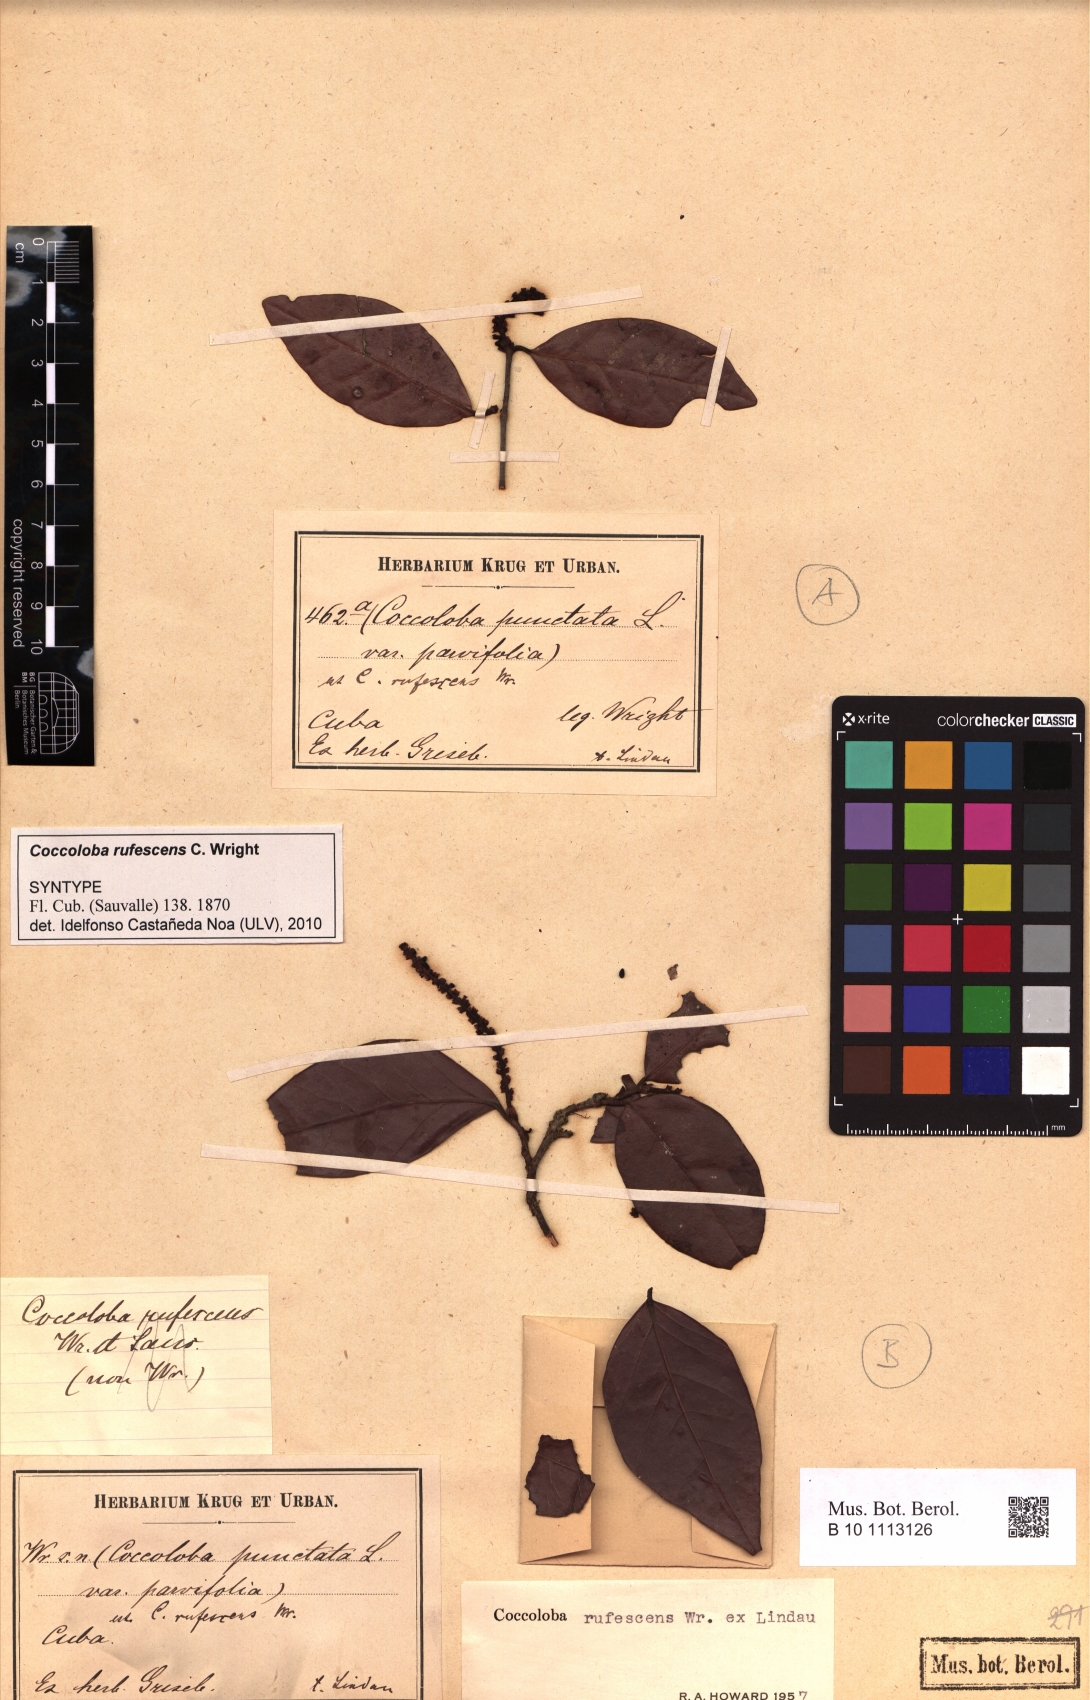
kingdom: Plantae
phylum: Tracheophyta
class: Magnoliopsida
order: Caryophyllales
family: Polygonaceae
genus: Coccoloba
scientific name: Coccoloba rufescens
